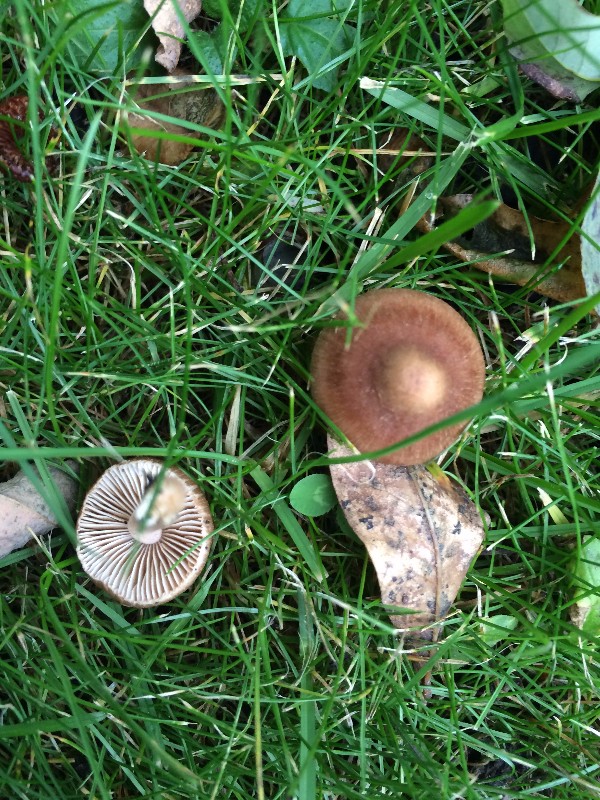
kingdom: Fungi
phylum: Basidiomycota
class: Agaricomycetes
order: Agaricales
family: Inocybaceae
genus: Inocybe
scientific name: Inocybe
